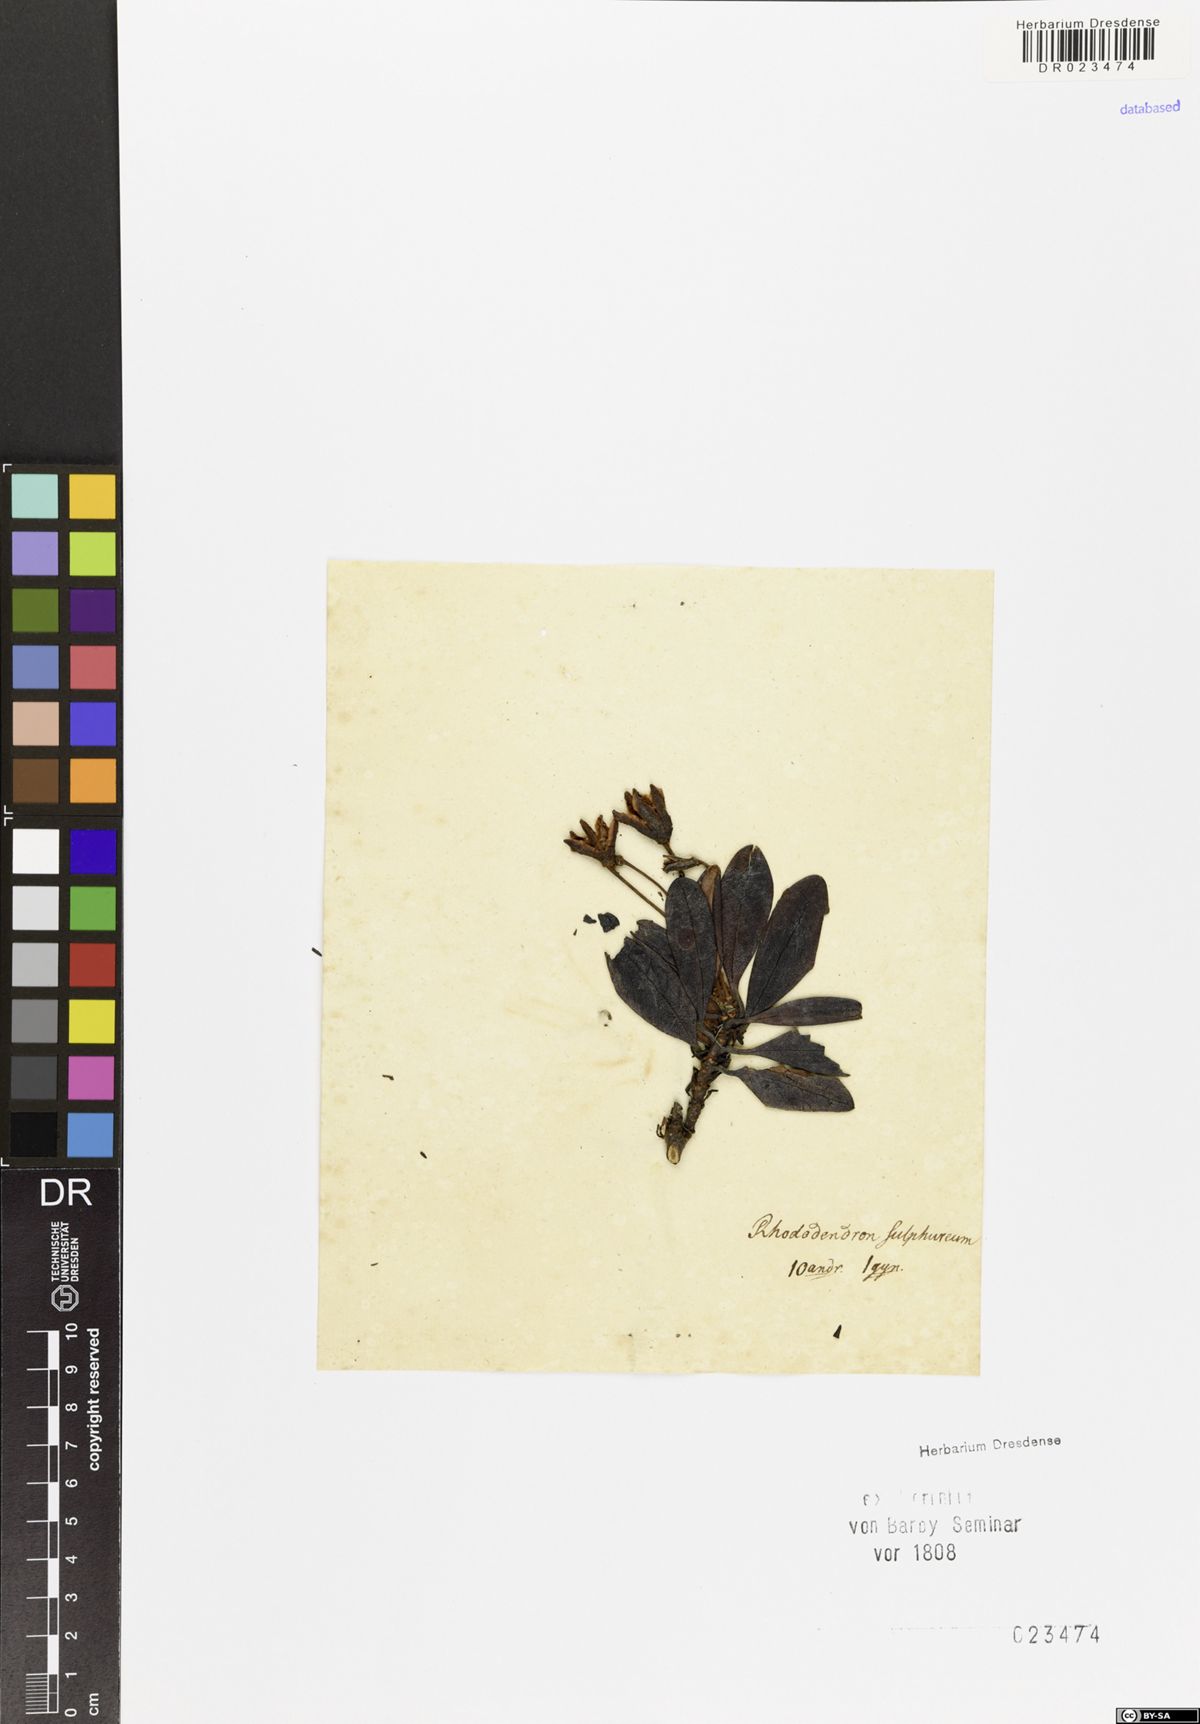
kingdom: Plantae
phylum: Tracheophyta
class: Magnoliopsida
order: Ericales
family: Ericaceae
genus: Rhododendron
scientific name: Rhododendron sulfureum
